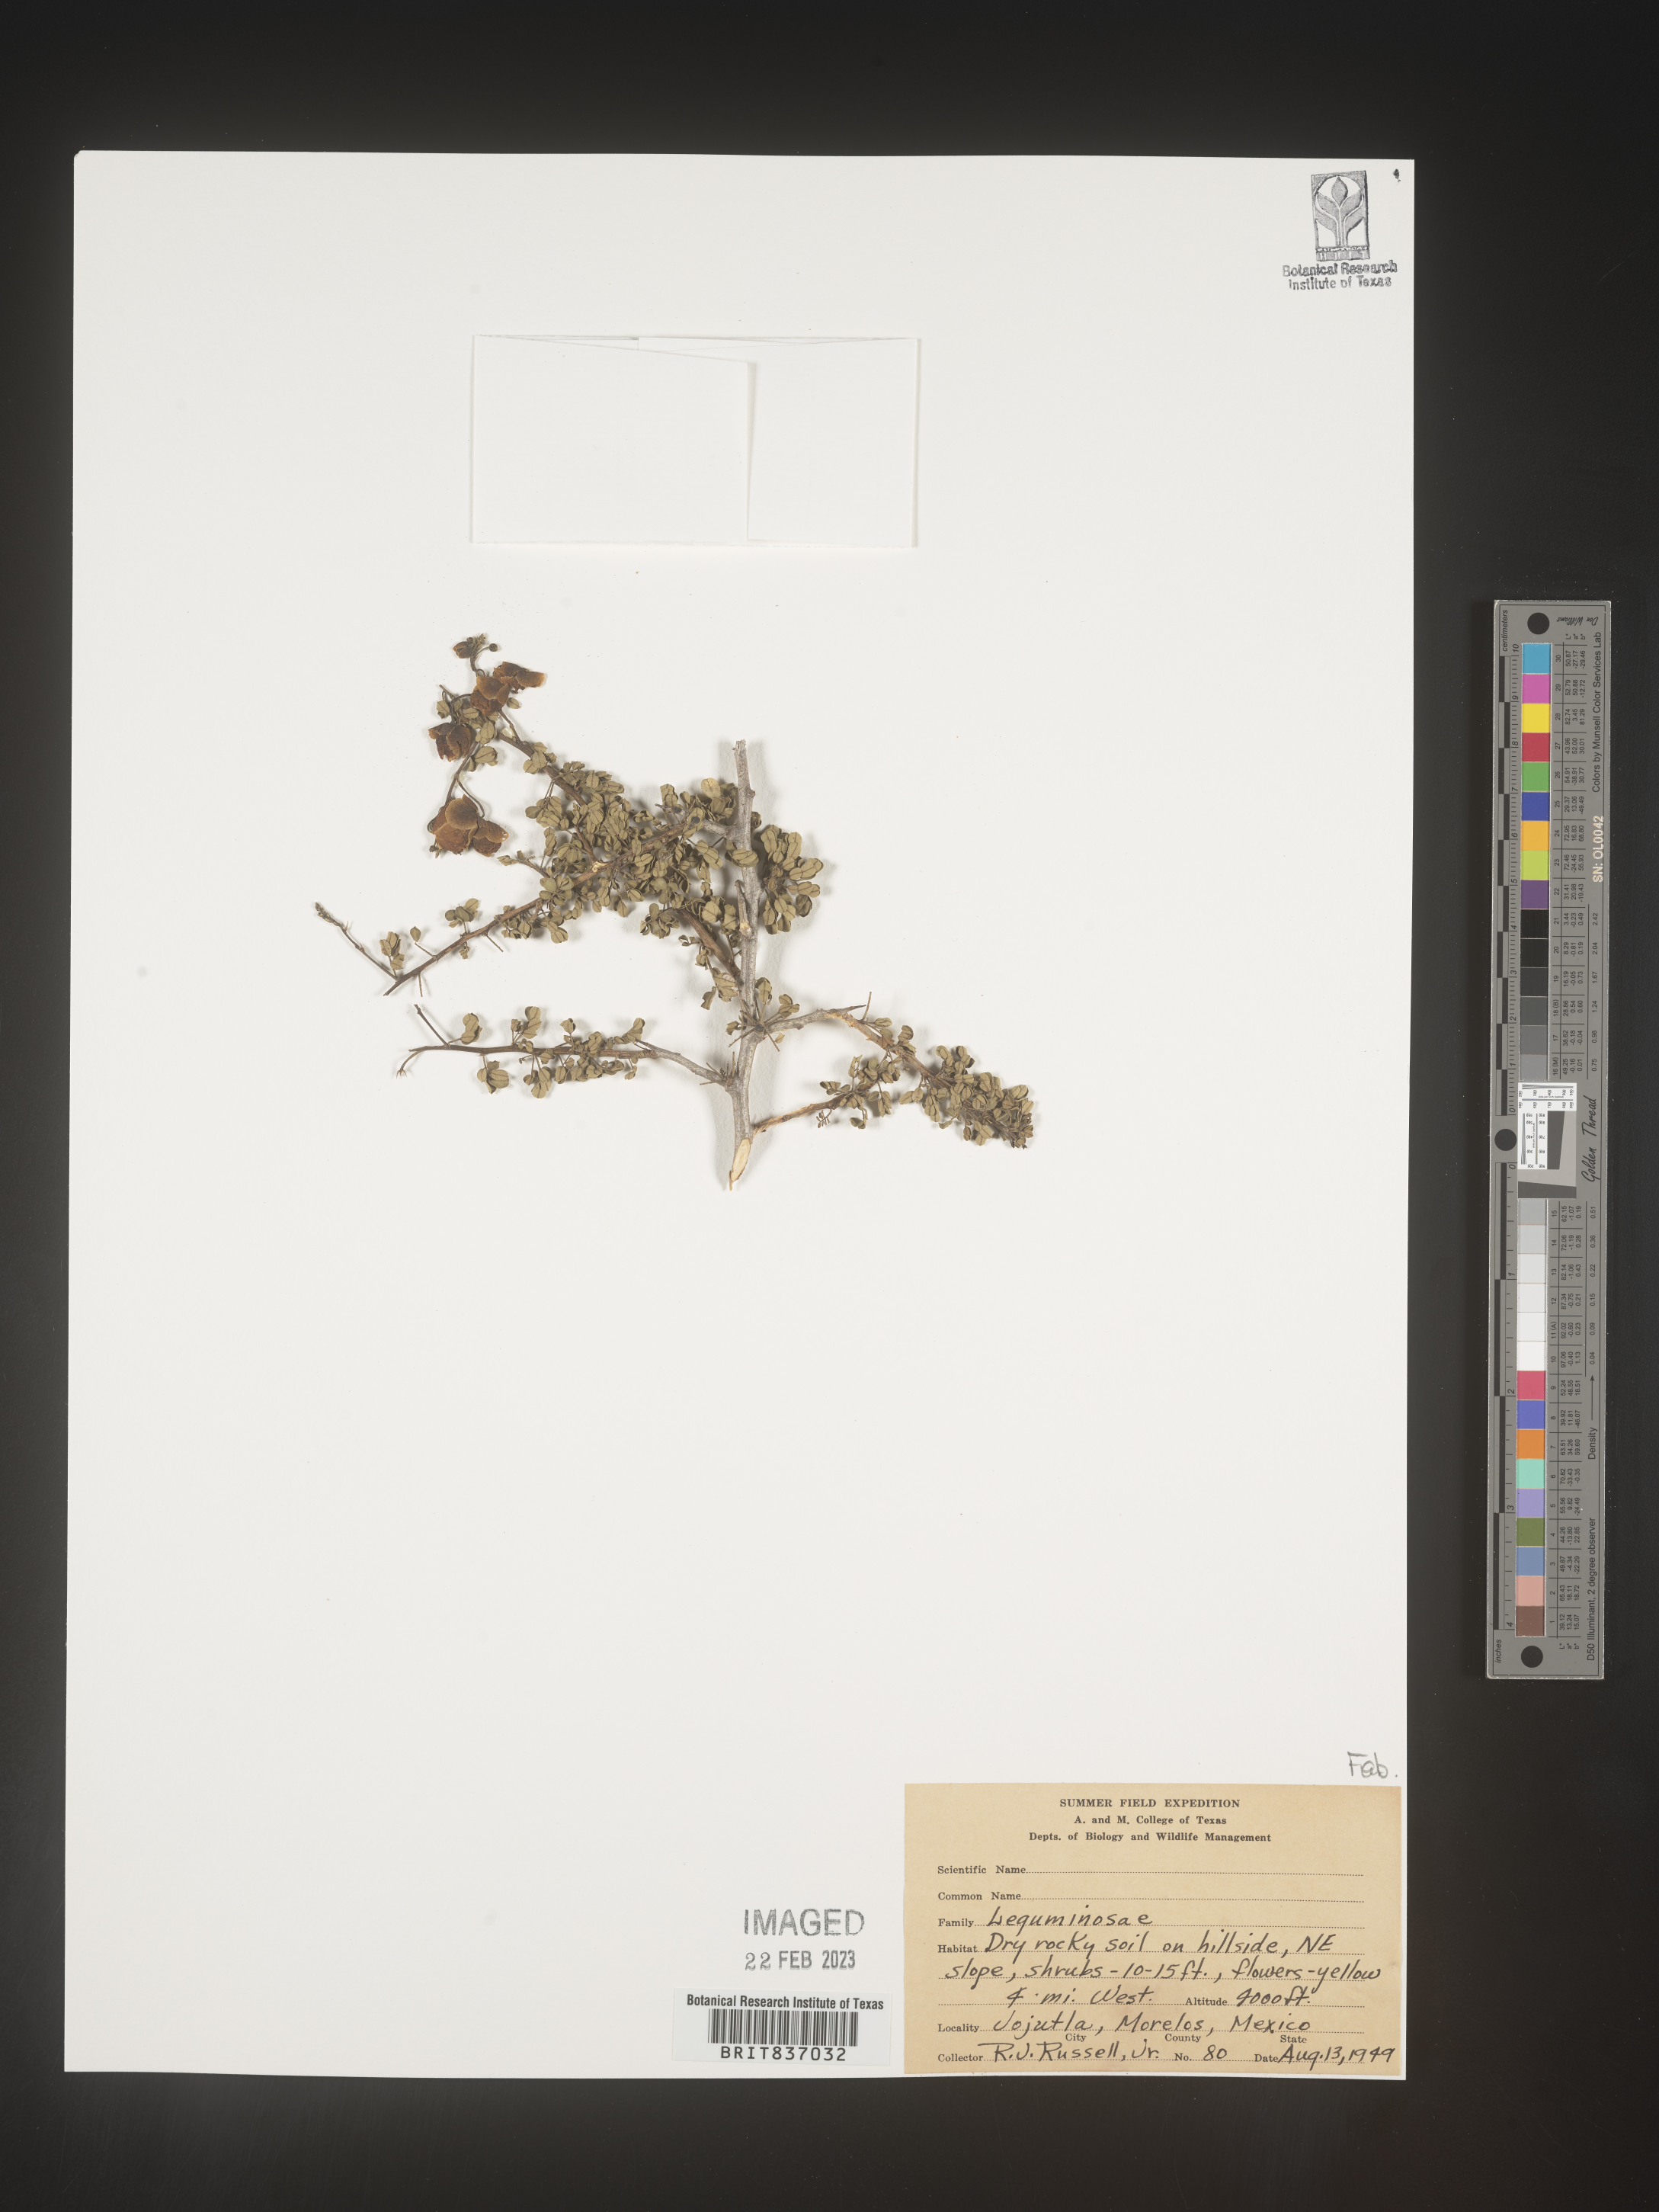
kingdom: Plantae
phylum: Tracheophyta
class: Magnoliopsida
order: Fabales
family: Fabaceae
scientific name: Fabaceae
